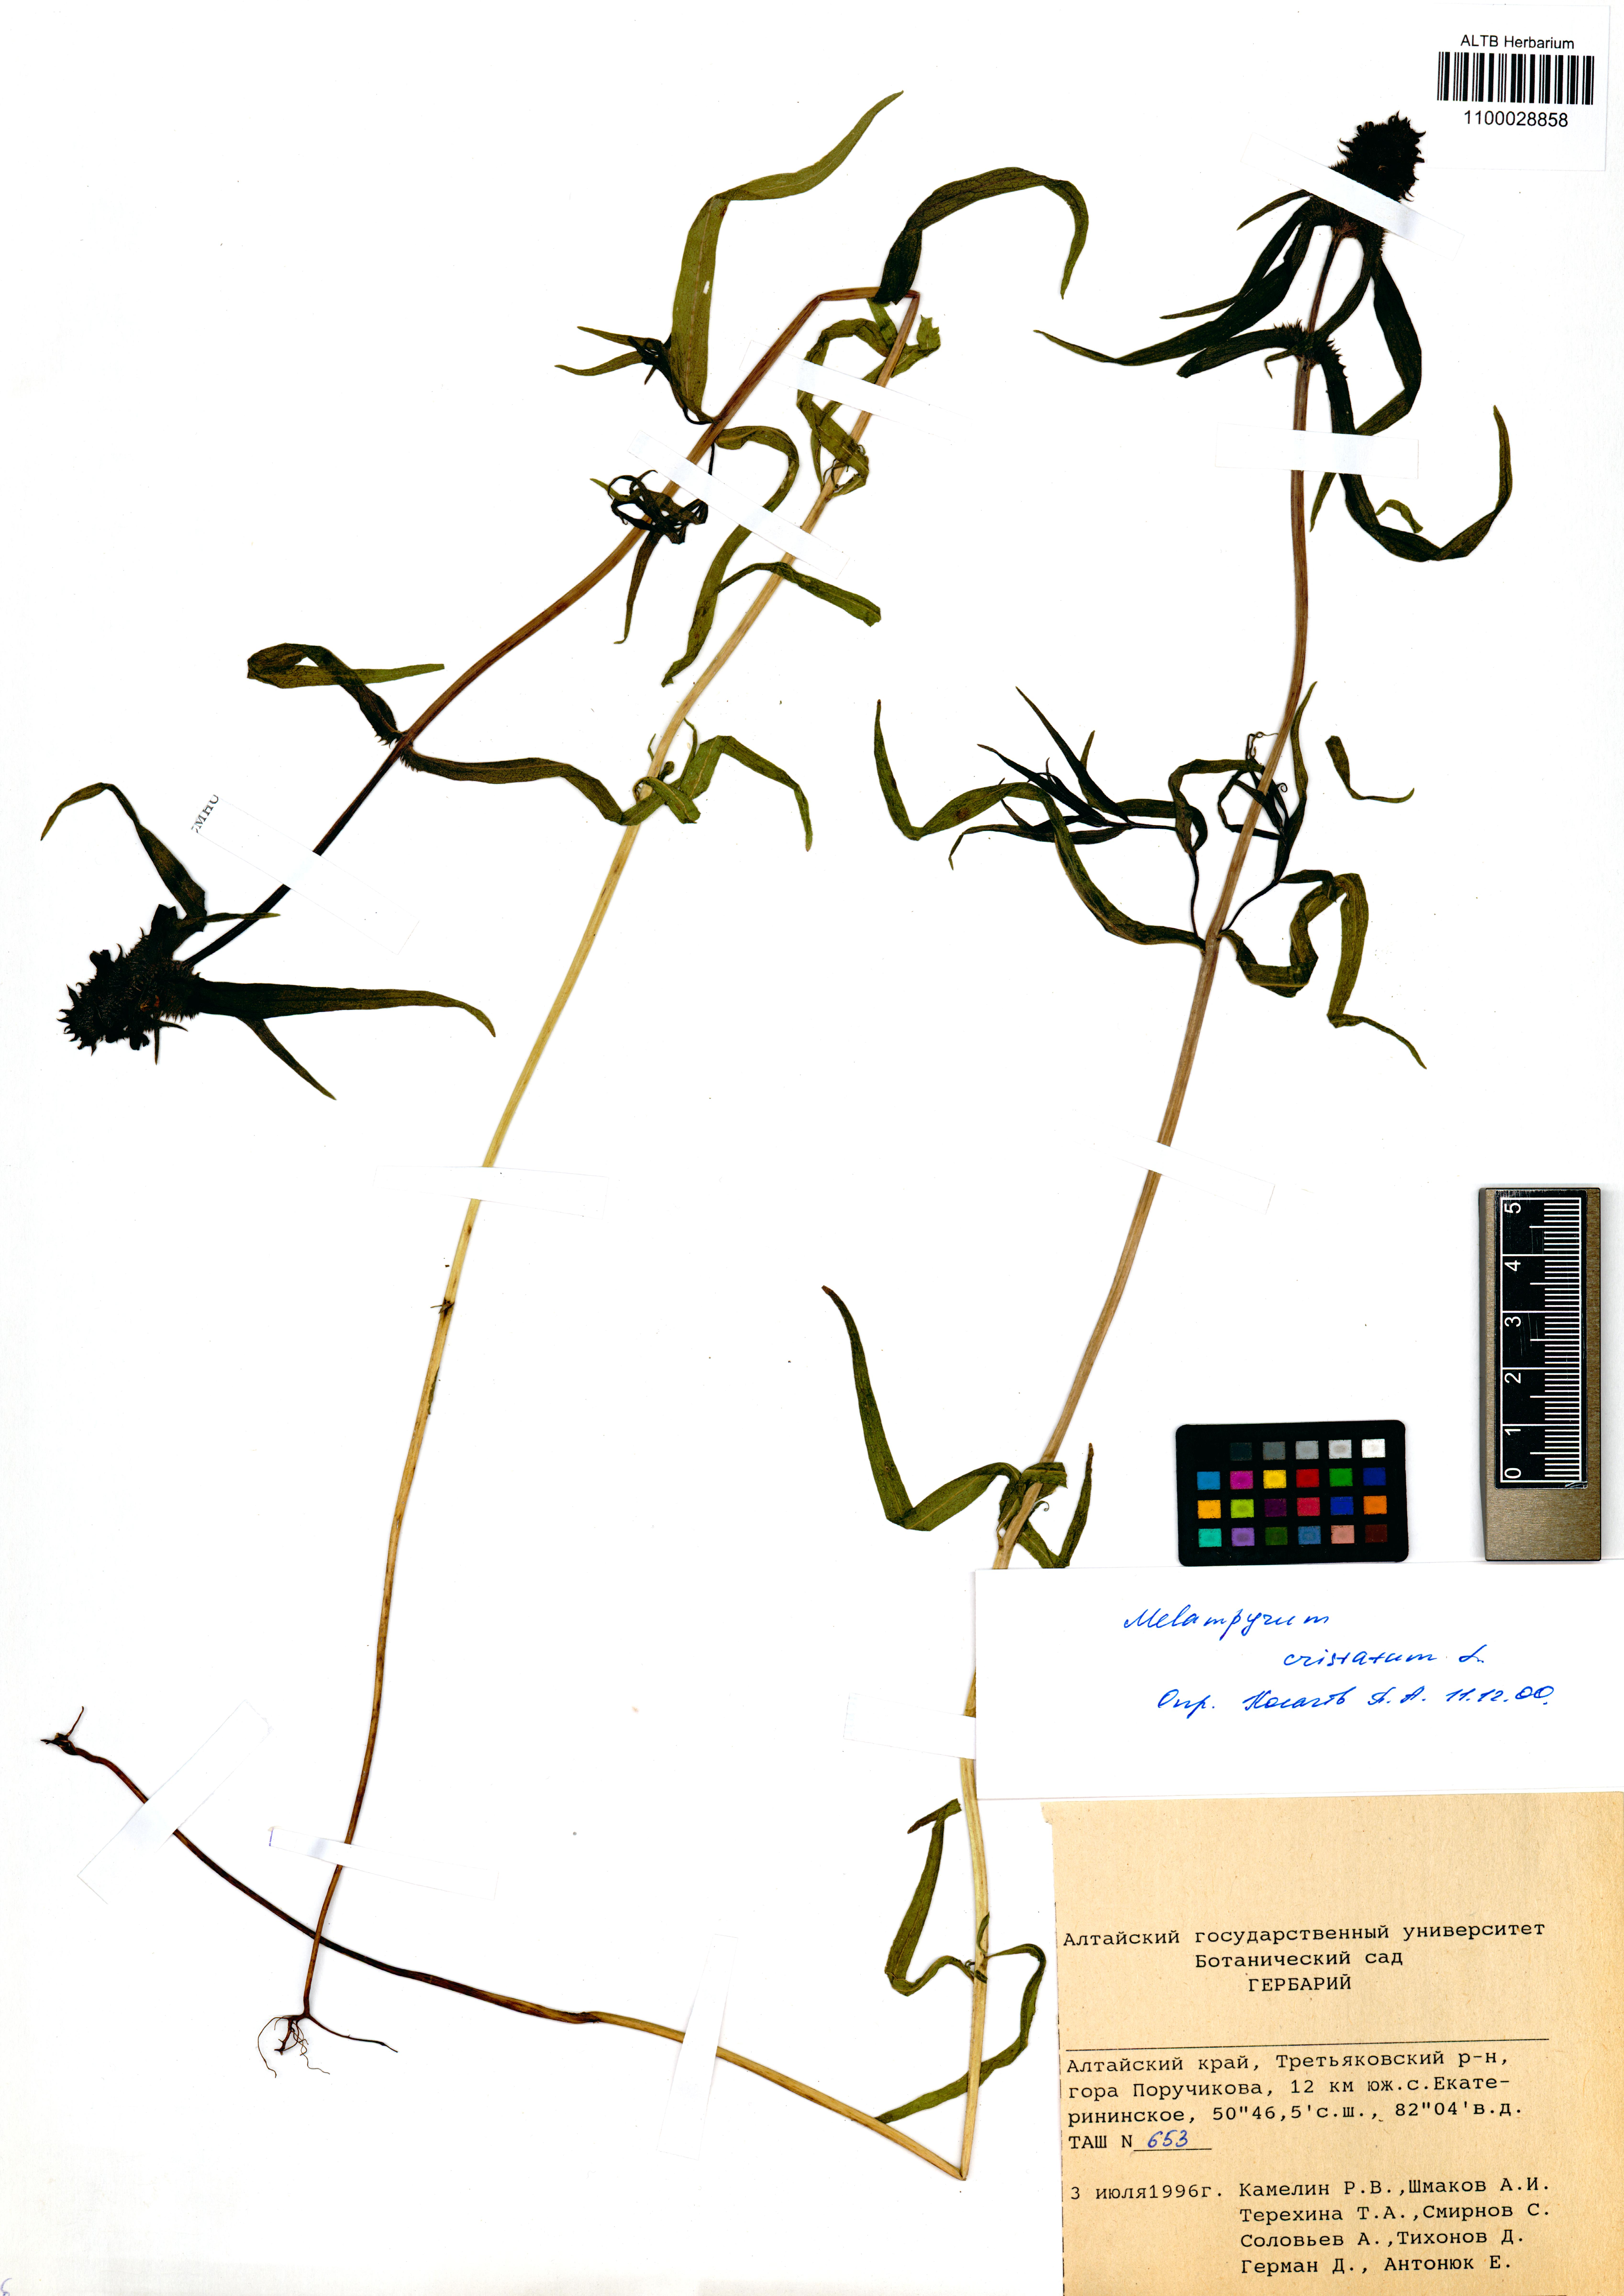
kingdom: Plantae
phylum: Tracheophyta
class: Magnoliopsida
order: Lamiales
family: Orobanchaceae
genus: Melampyrum
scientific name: Melampyrum cristatum
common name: Crested cow-wheat
